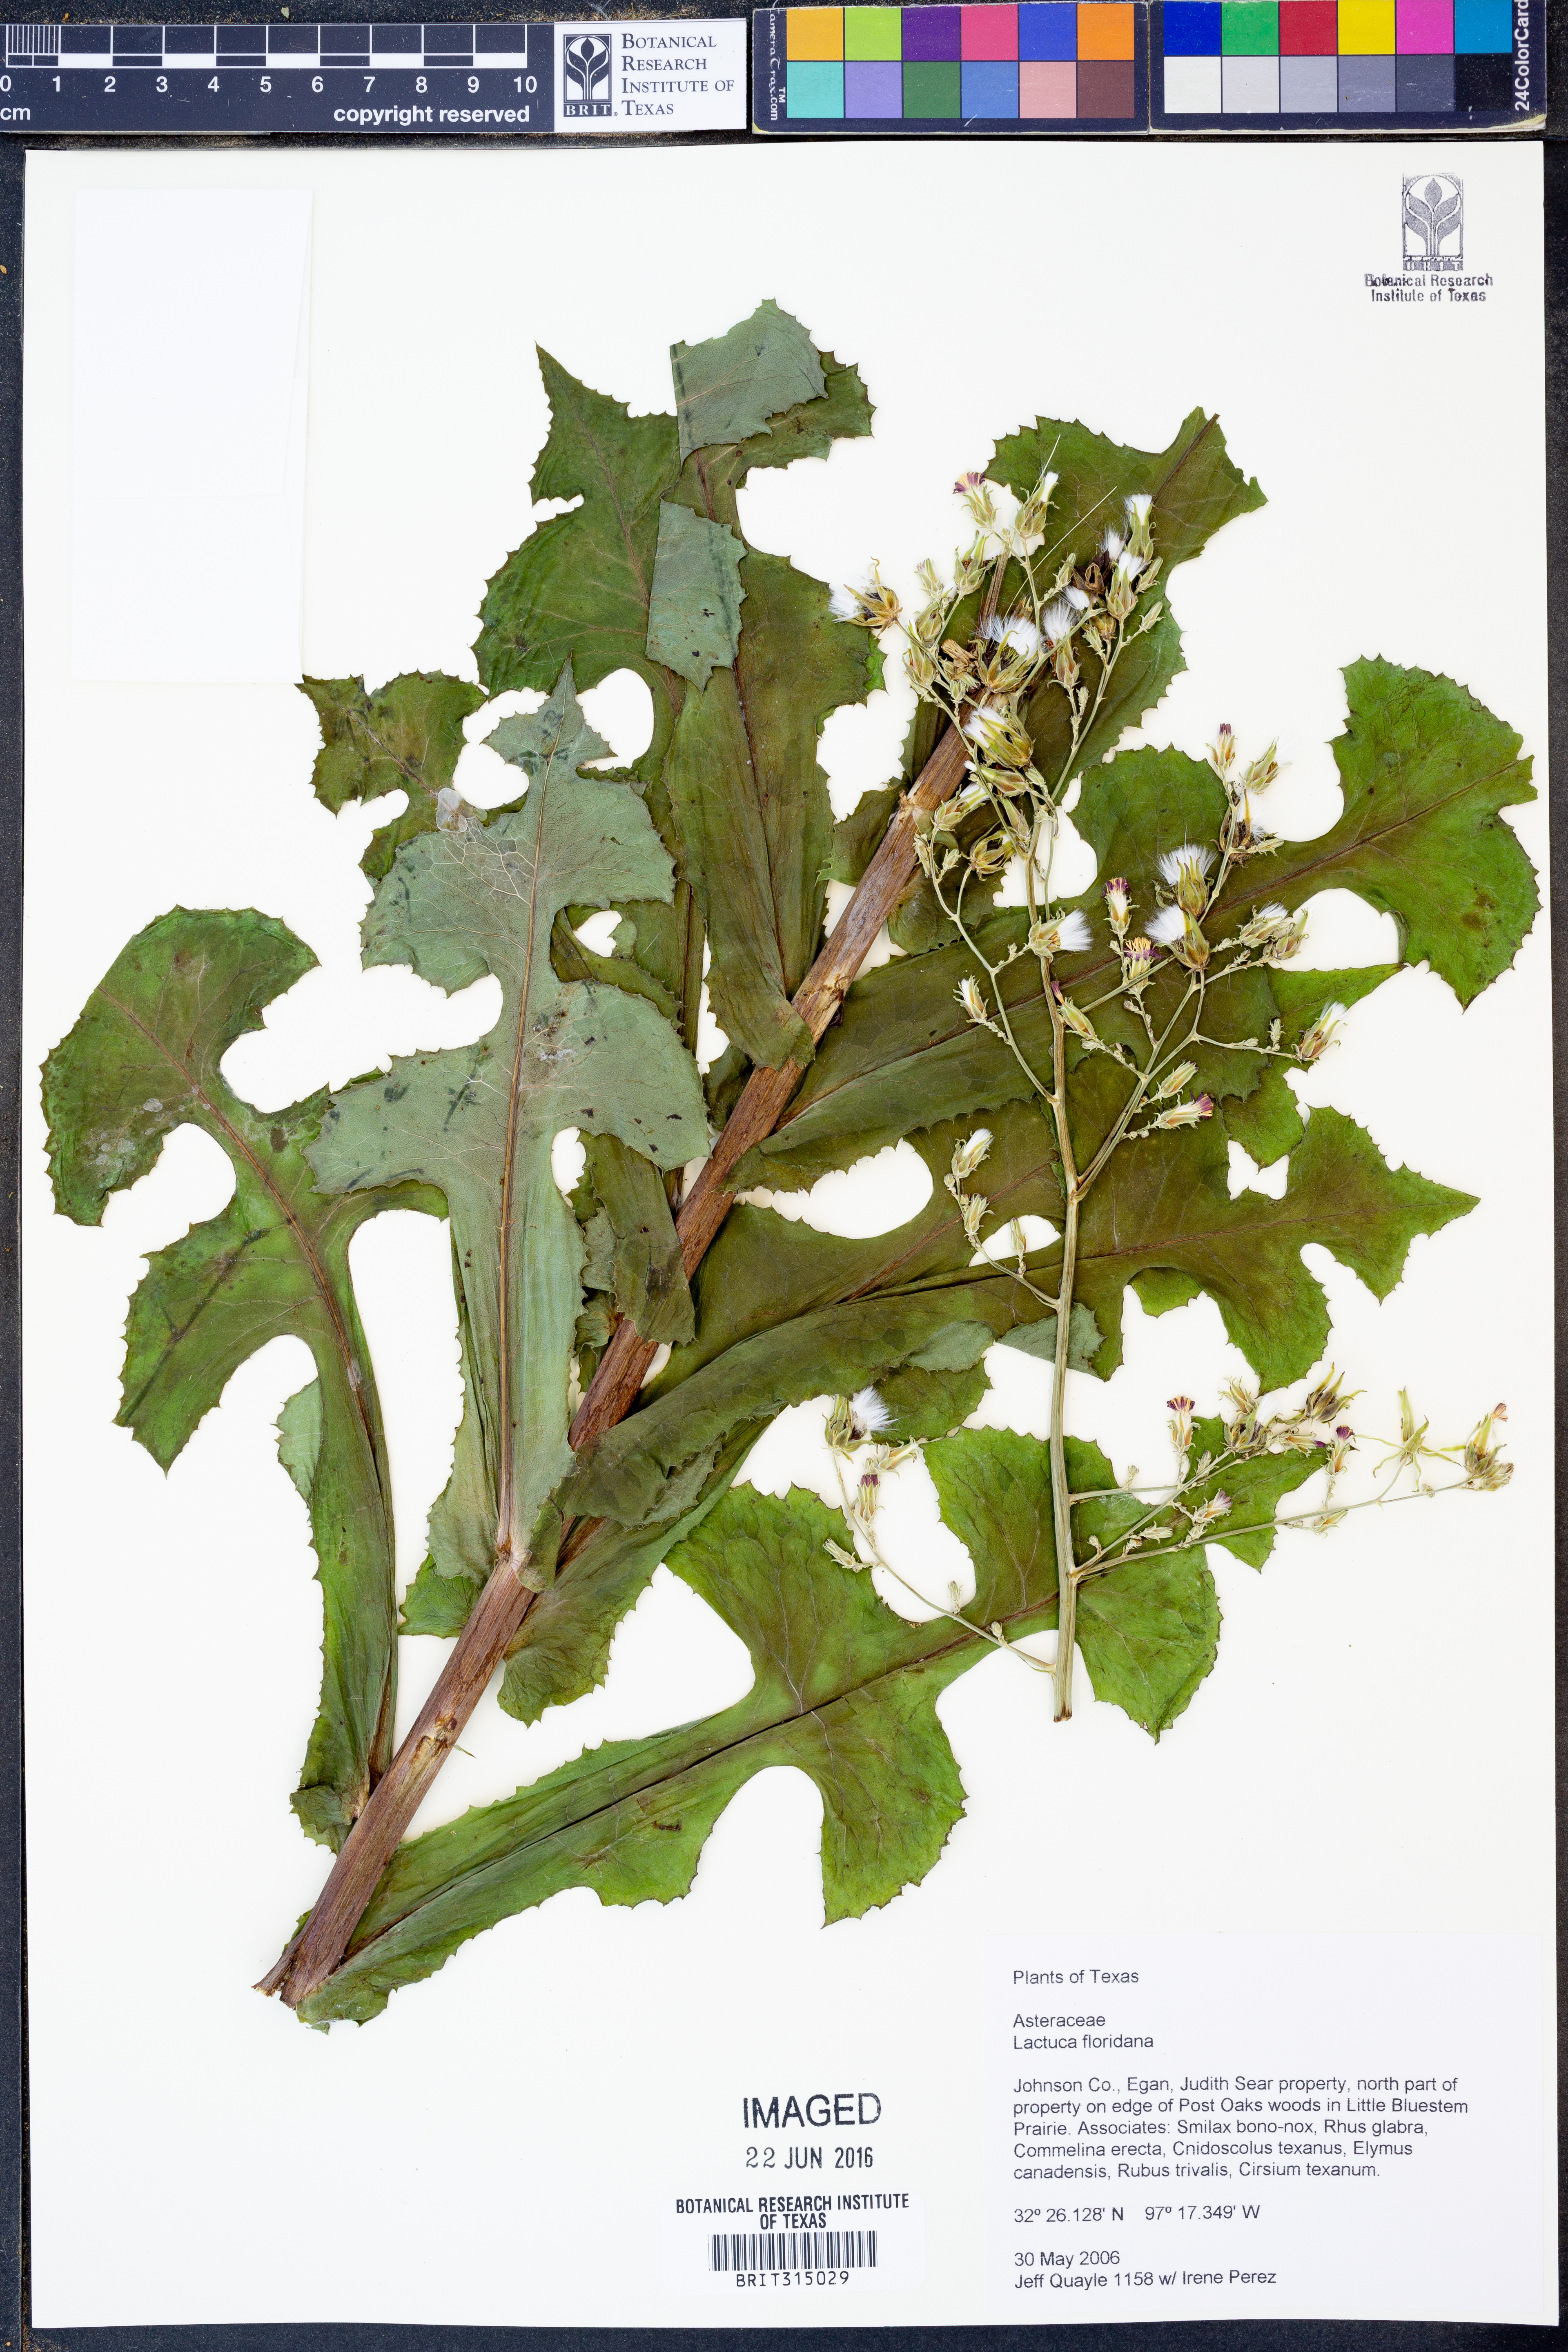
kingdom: Plantae
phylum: Tracheophyta
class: Magnoliopsida
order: Asterales
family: Asteraceae
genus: Lactuca
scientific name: Lactuca floridana
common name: Woodland lettuce
